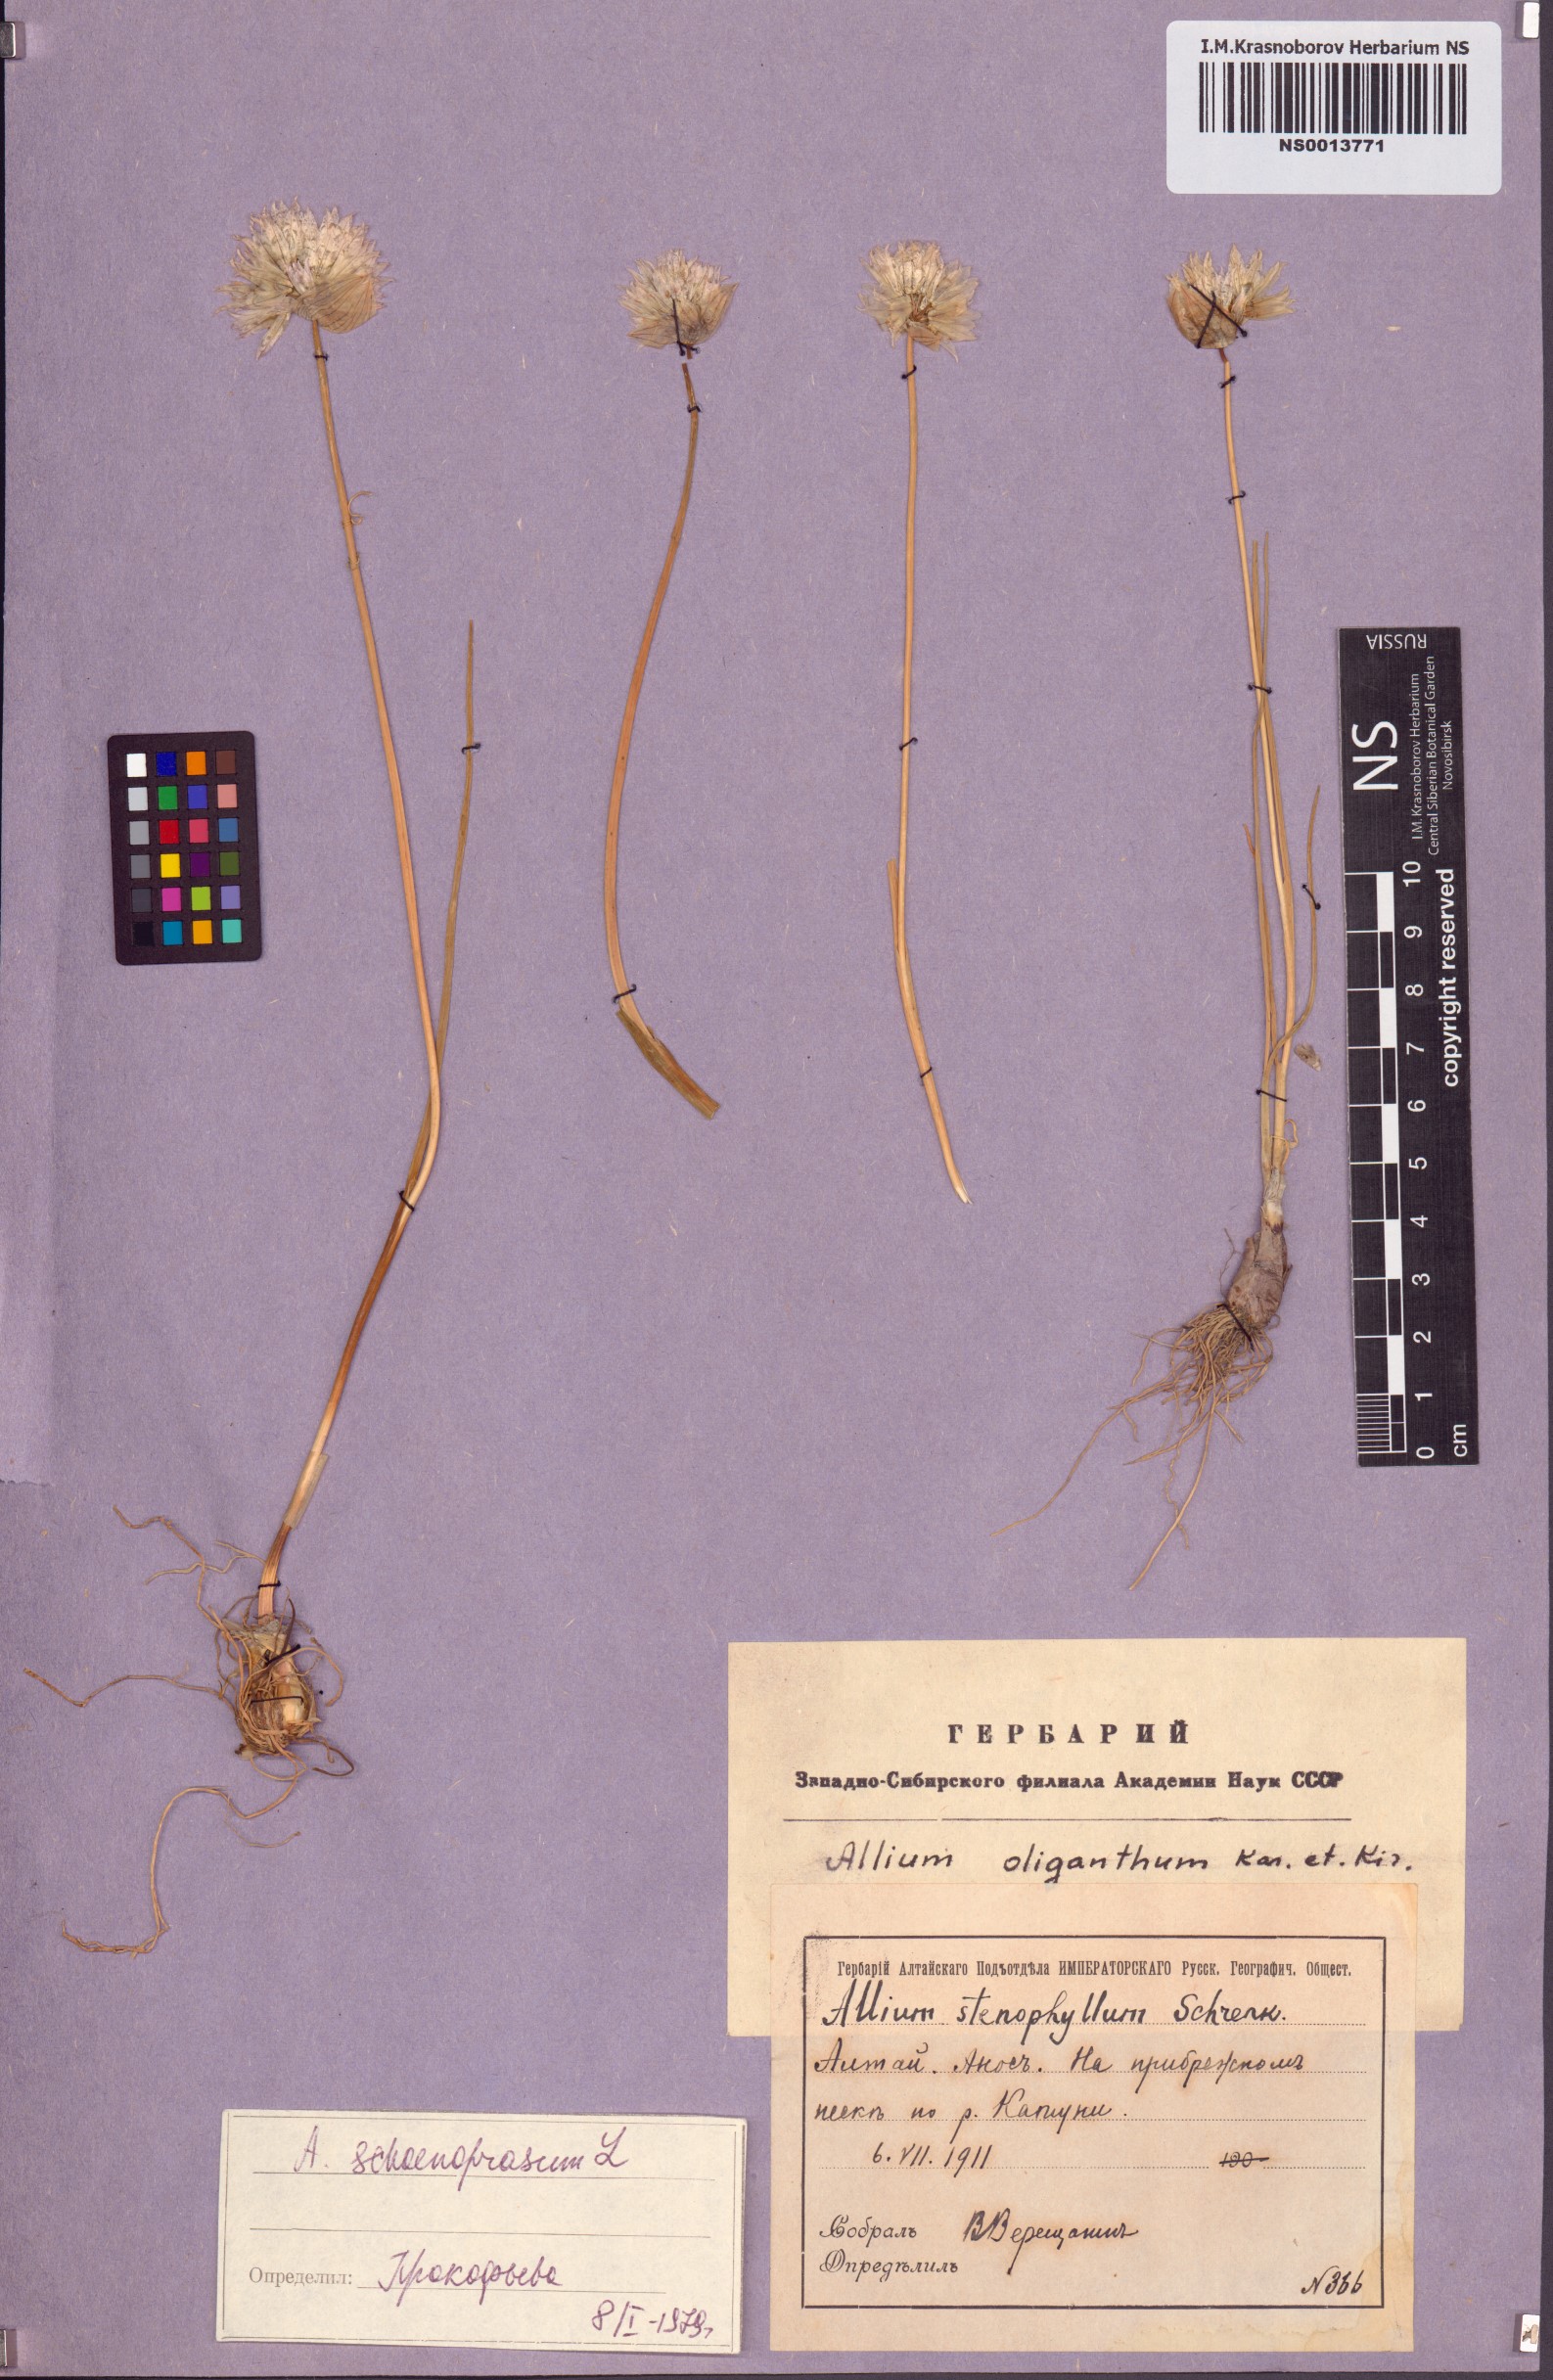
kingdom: Plantae
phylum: Tracheophyta
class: Liliopsida
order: Asparagales
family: Amaryllidaceae
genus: Allium
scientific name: Allium schoenoprasum
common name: Chives
